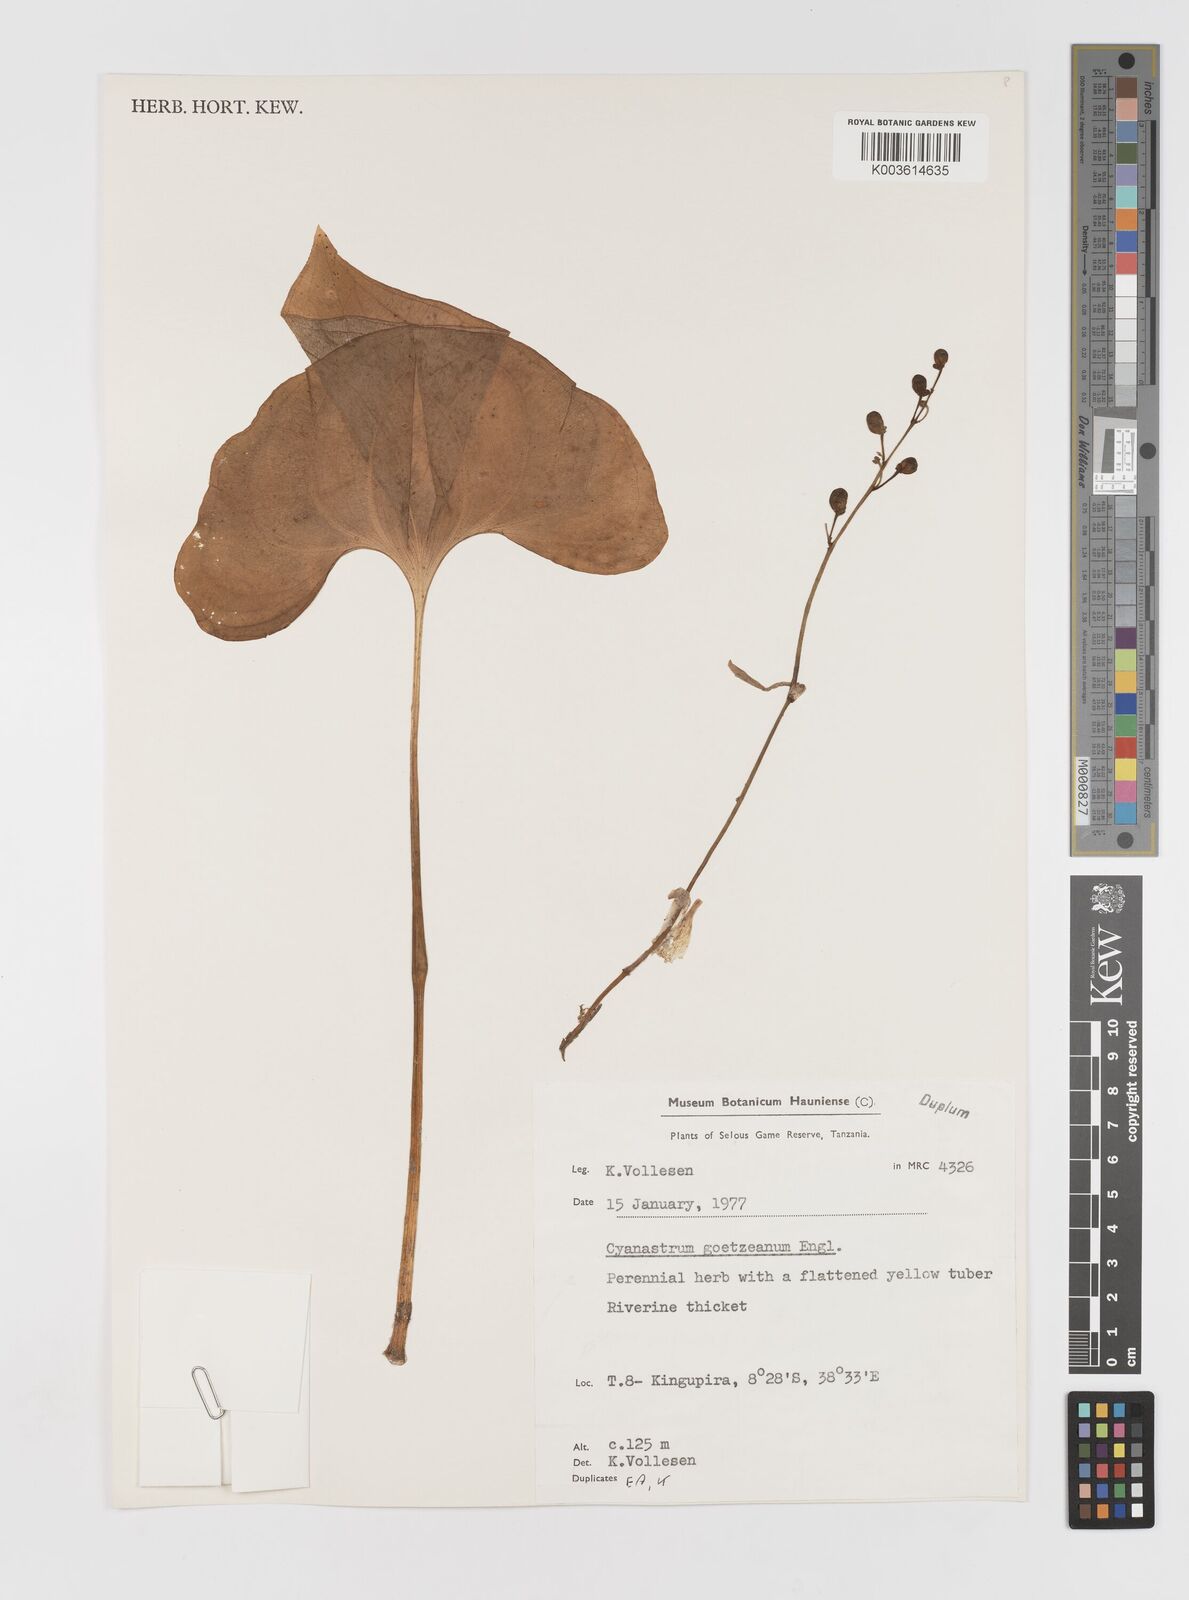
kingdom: Plantae
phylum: Tracheophyta
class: Liliopsida
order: Asparagales
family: Tecophilaeaceae
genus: Cyanastrum
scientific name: Cyanastrum goetzeanum
